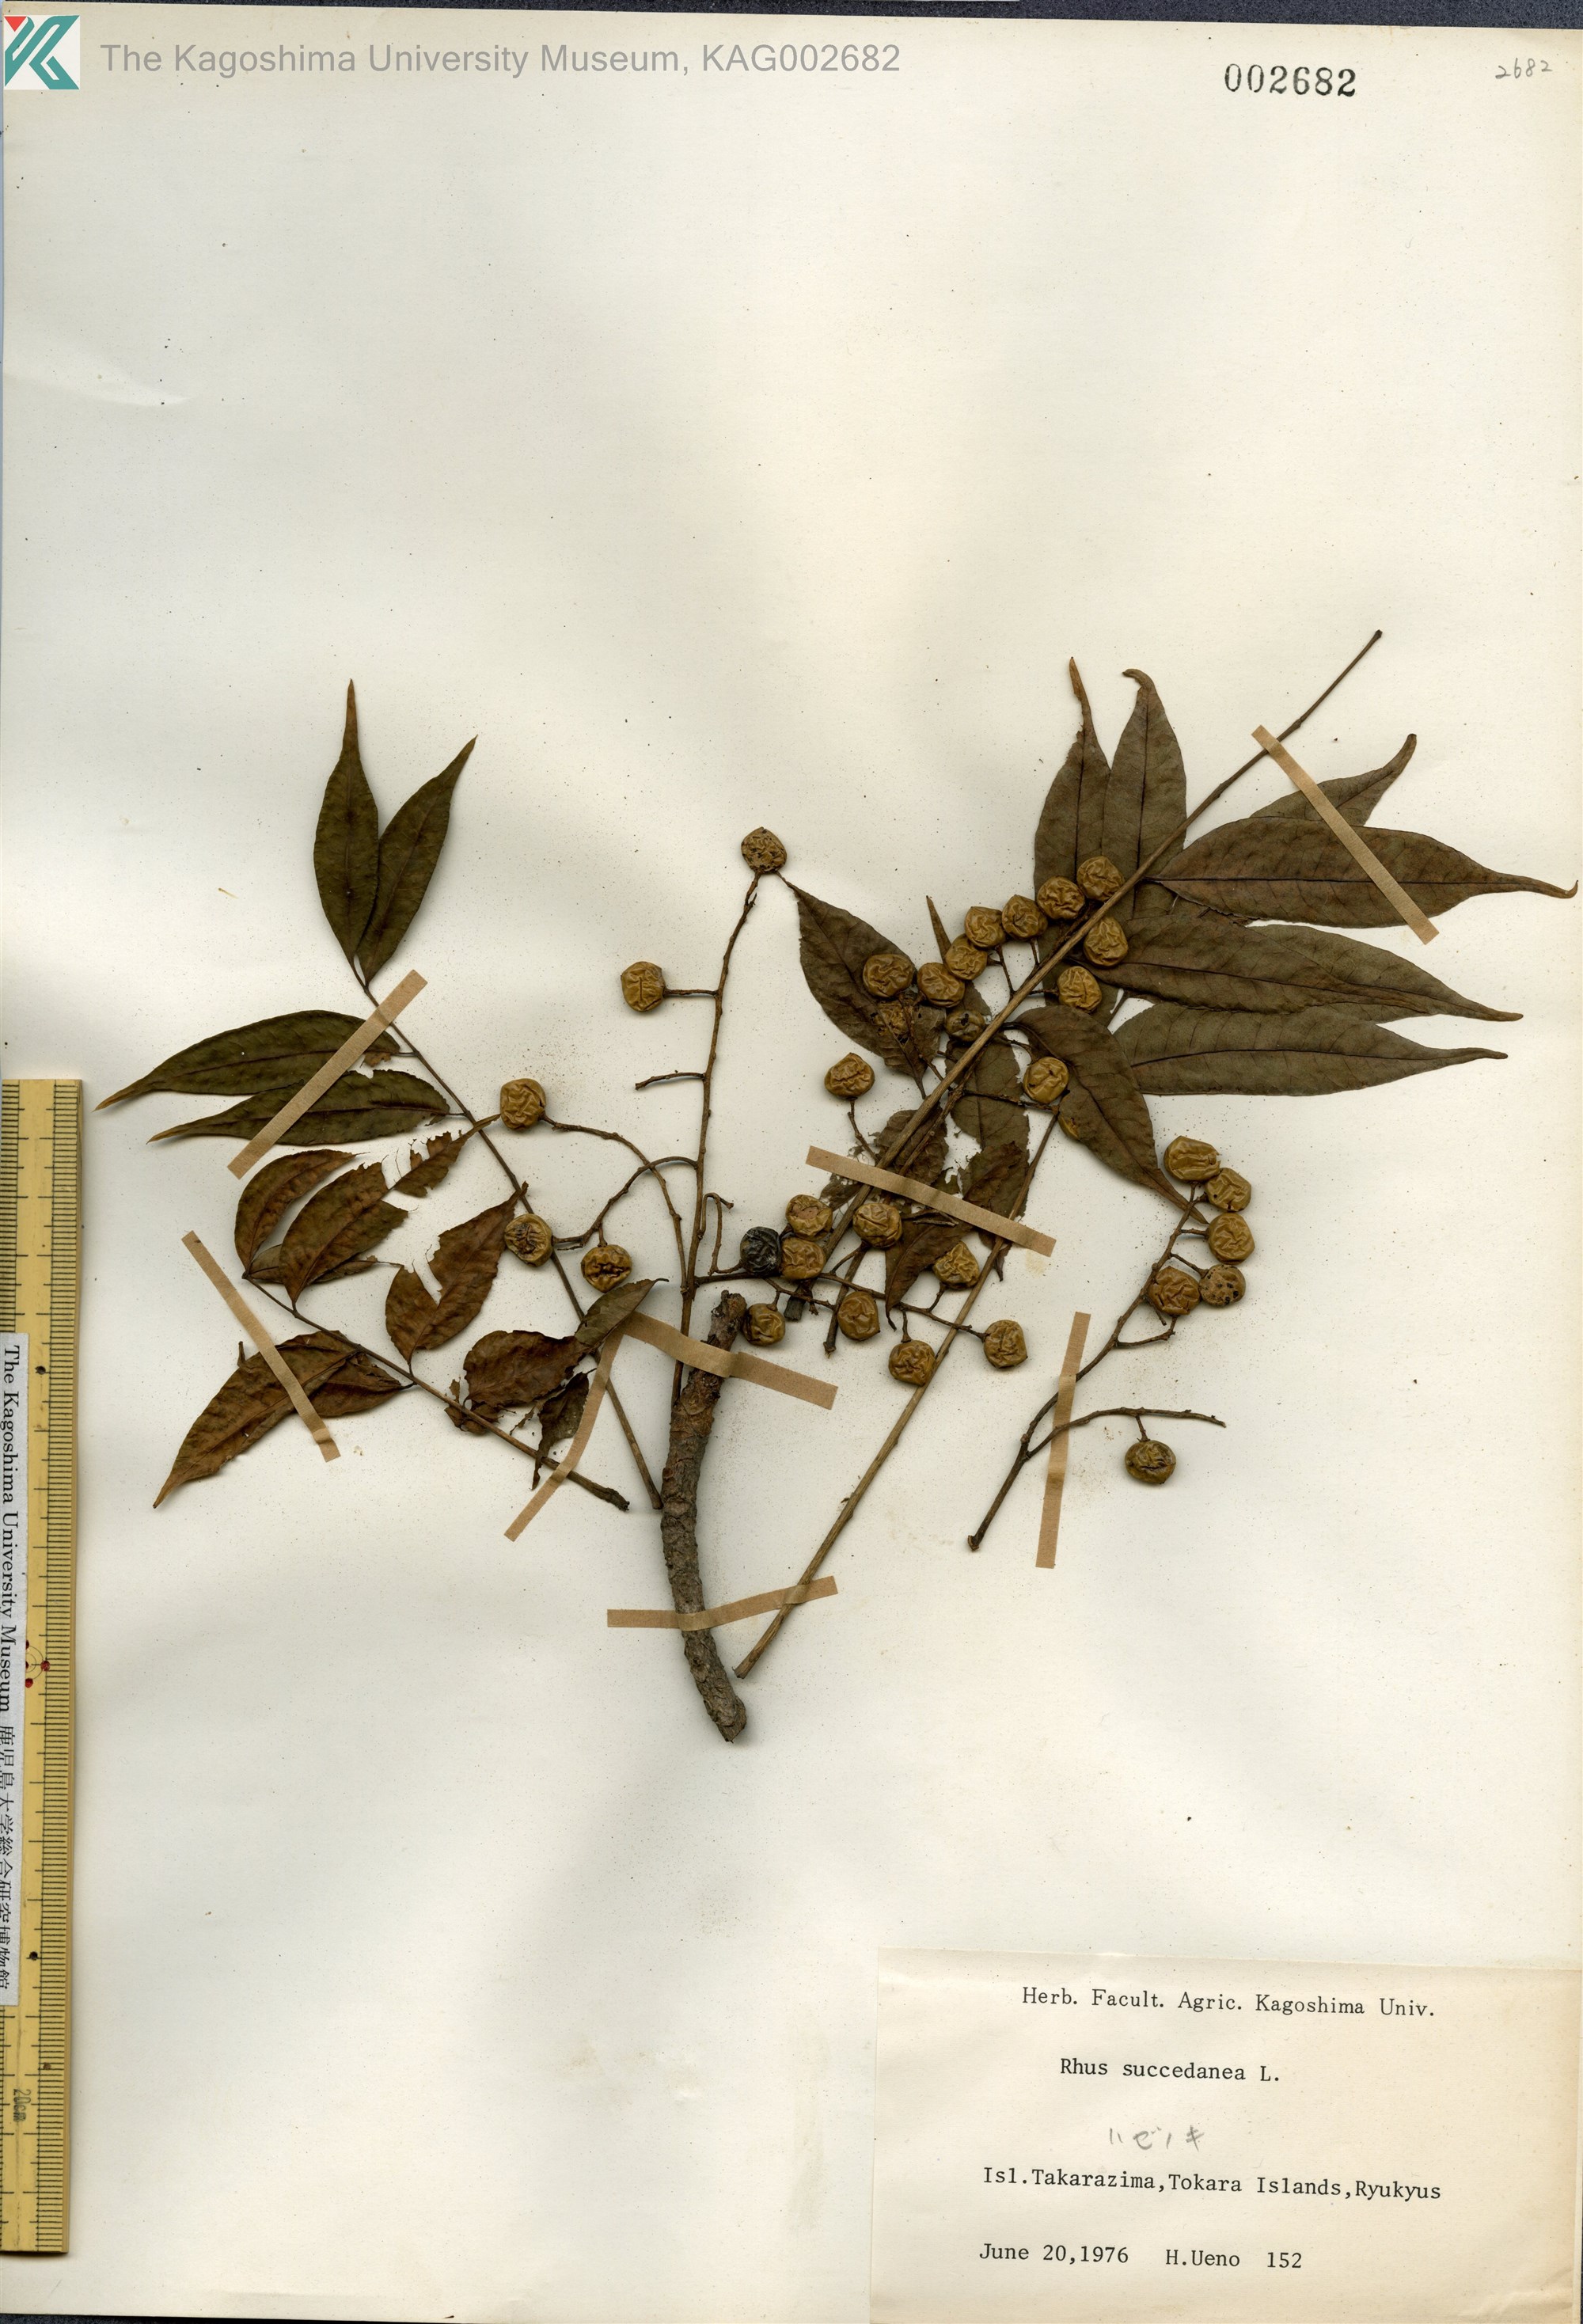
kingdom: Plantae
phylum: Tracheophyta
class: Magnoliopsida
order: Sapindales
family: Anacardiaceae
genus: Toxicodendron
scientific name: Toxicodendron succedaneum
